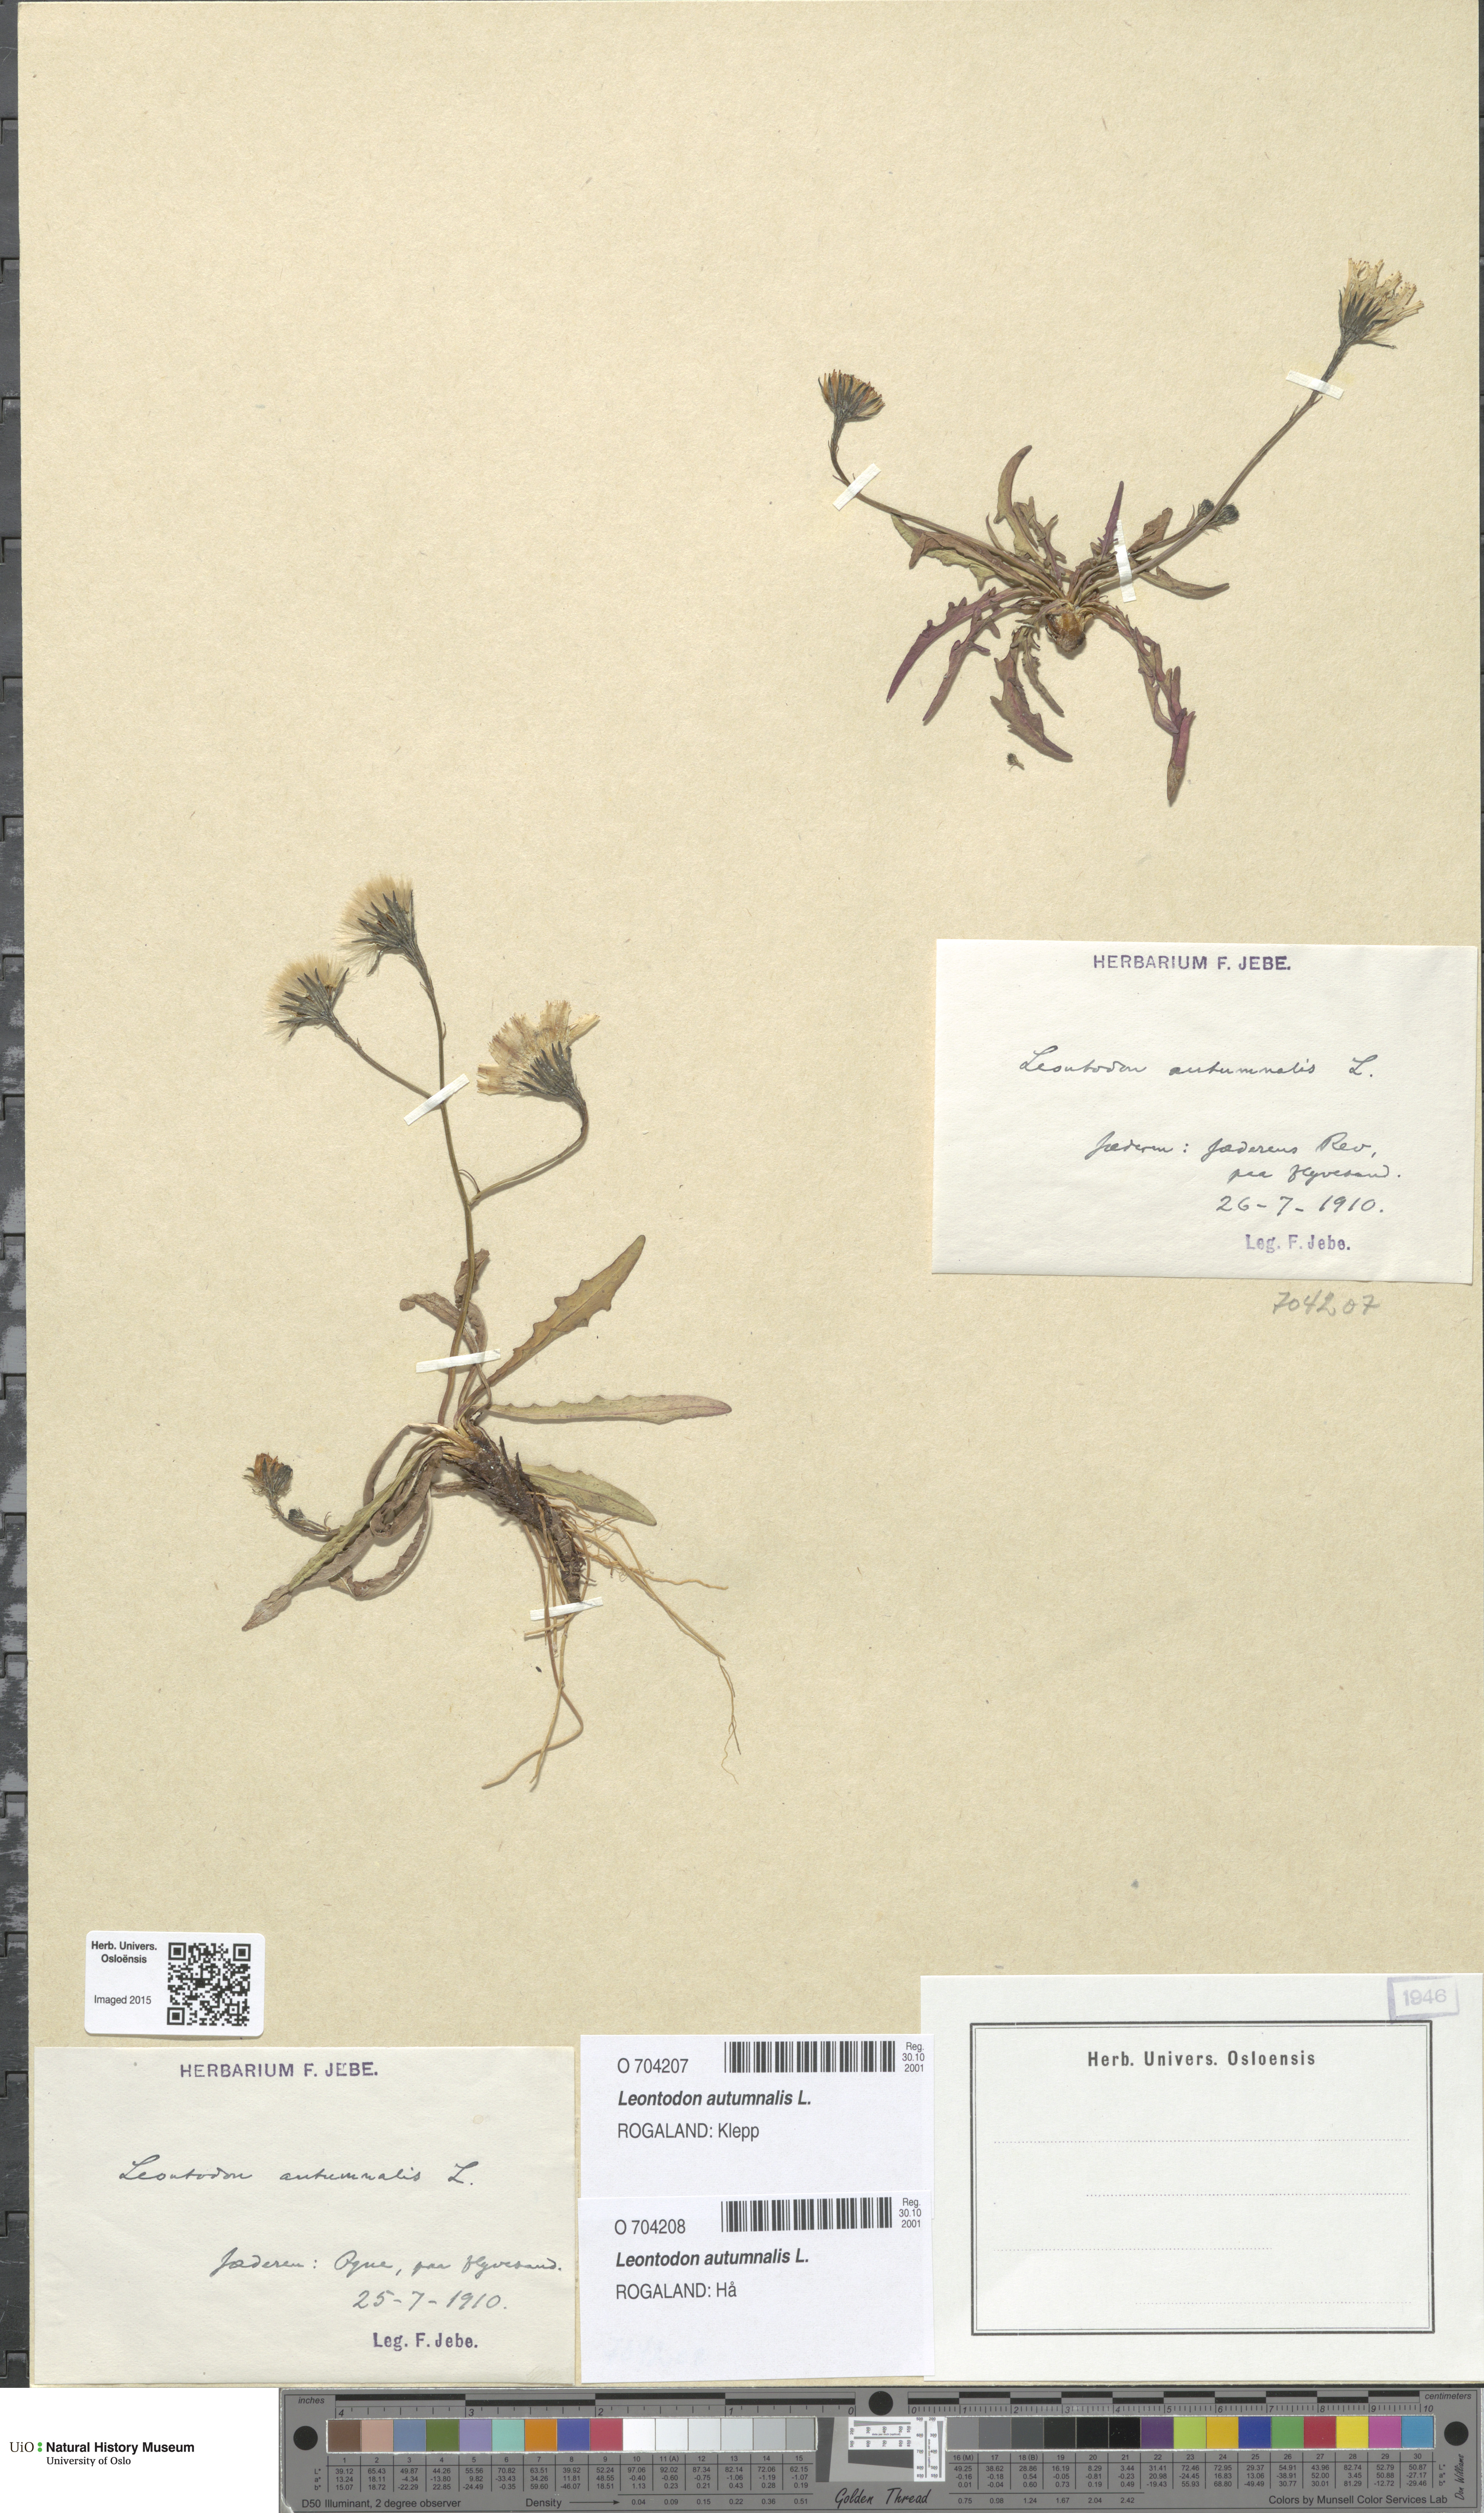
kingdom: Plantae
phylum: Tracheophyta
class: Magnoliopsida
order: Asterales
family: Asteraceae
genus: Scorzoneroides
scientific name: Scorzoneroides autumnalis
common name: Autumn hawkbit
